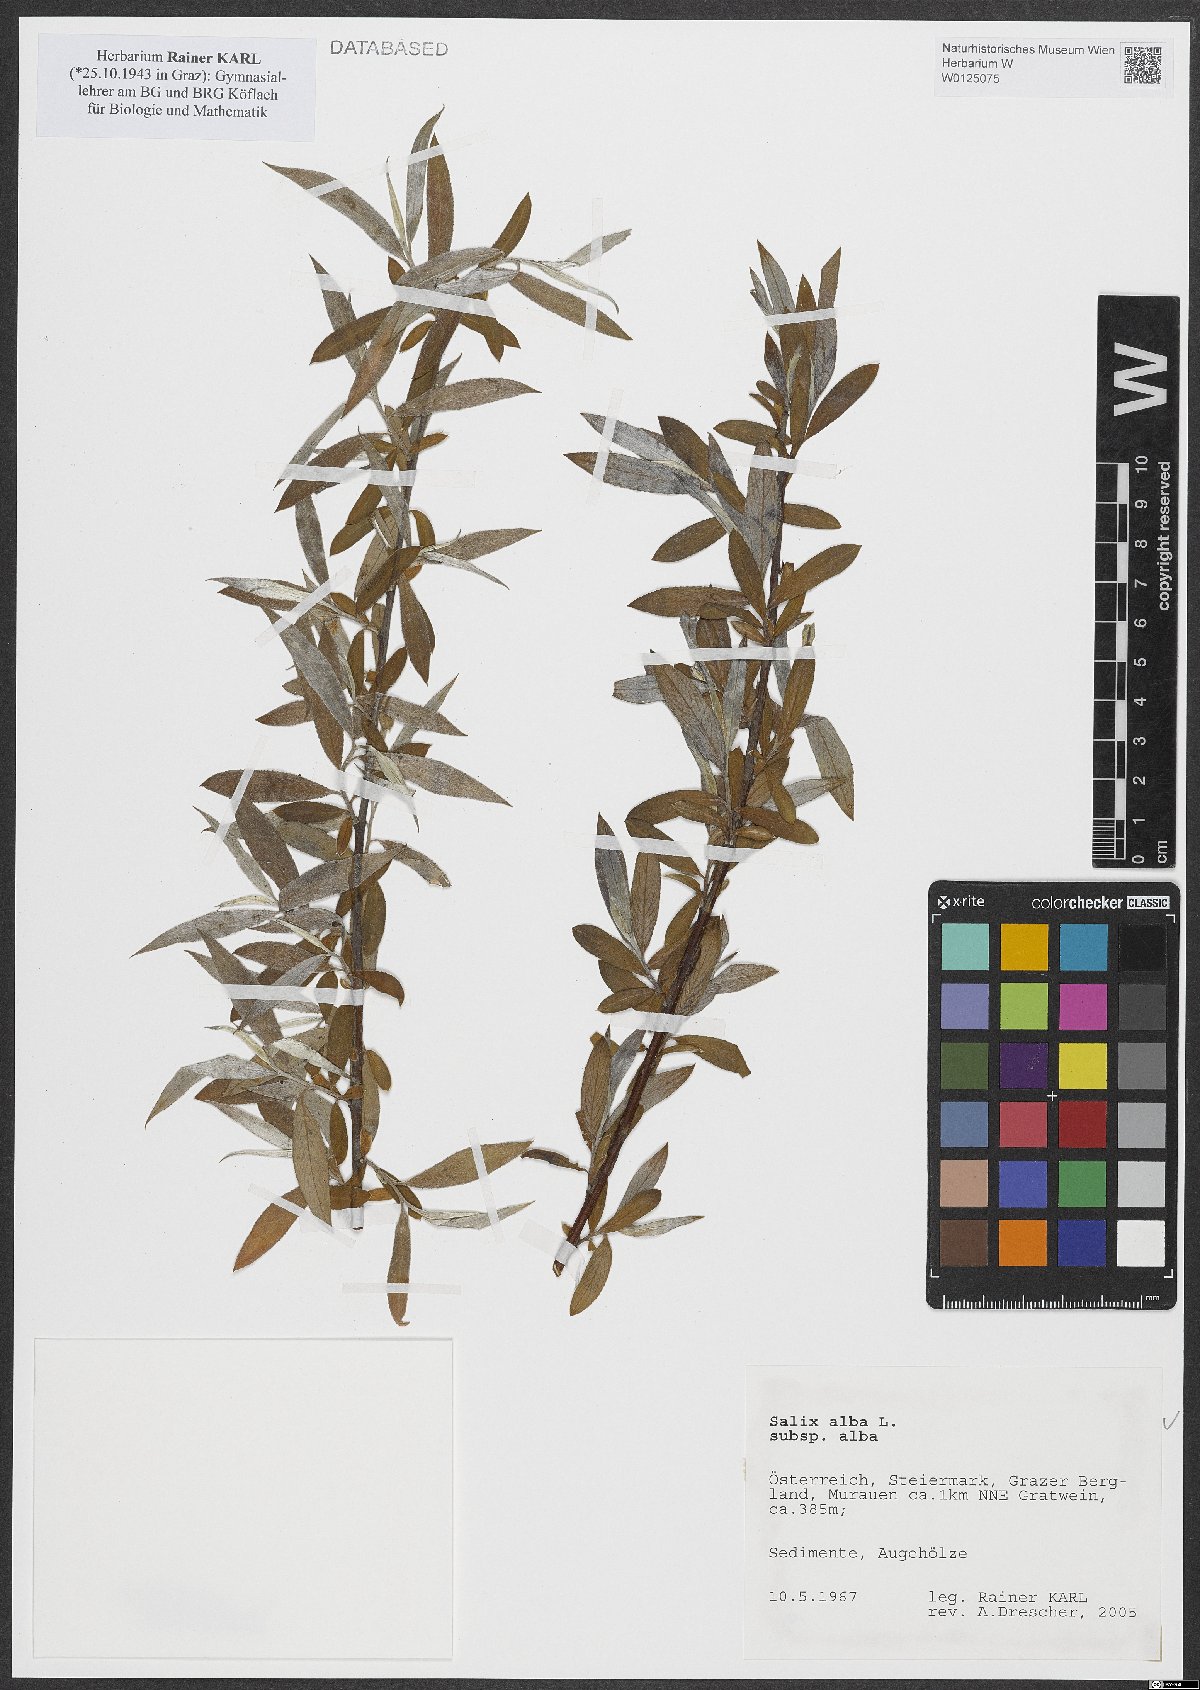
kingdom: Plantae
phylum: Tracheophyta
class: Magnoliopsida
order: Malpighiales
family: Salicaceae
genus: Salix
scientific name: Salix alba
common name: White willow
